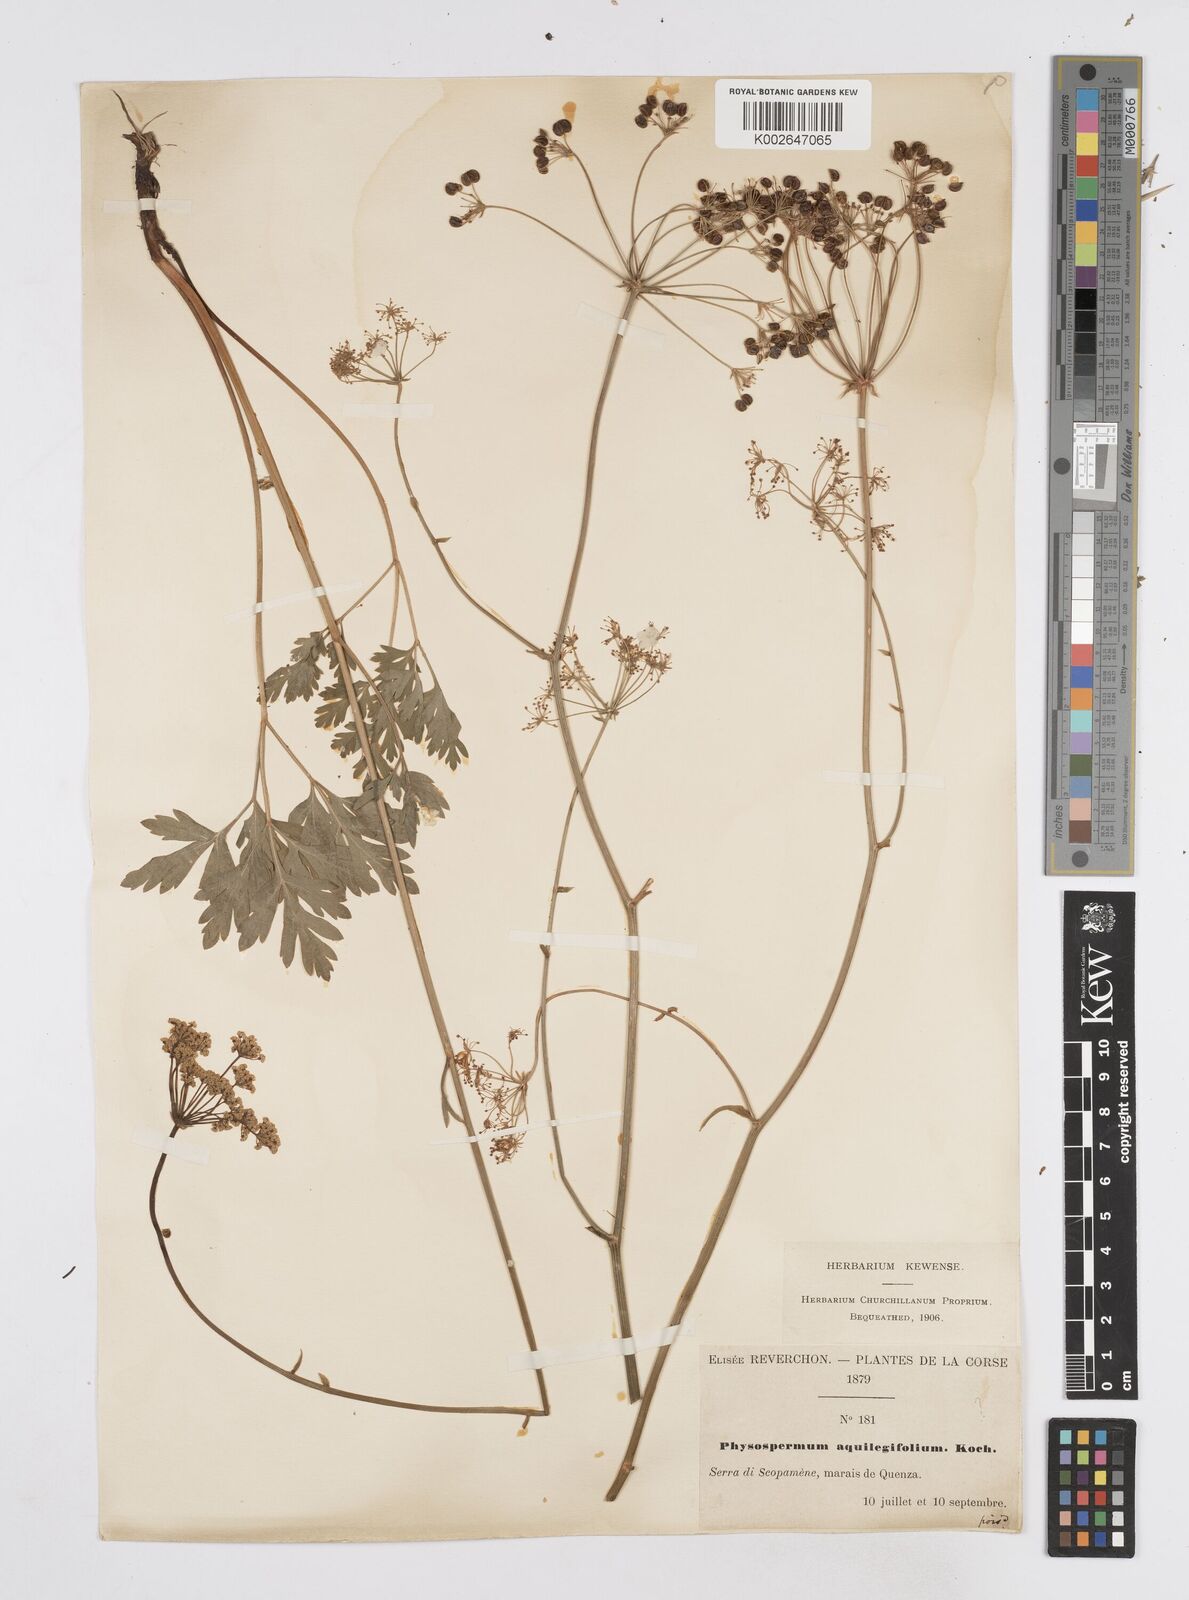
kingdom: Plantae
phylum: Tracheophyta
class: Magnoliopsida
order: Apiales
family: Apiaceae
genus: Physospermum
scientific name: Physospermum cornubiense
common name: Bladderseed
